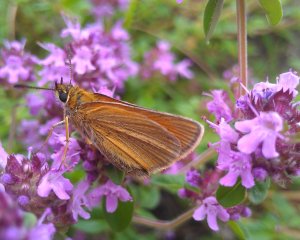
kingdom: Animalia
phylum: Arthropoda
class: Insecta
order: Lepidoptera
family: Hesperiidae
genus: Thymelicus
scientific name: Thymelicus lineola
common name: European Skipper
